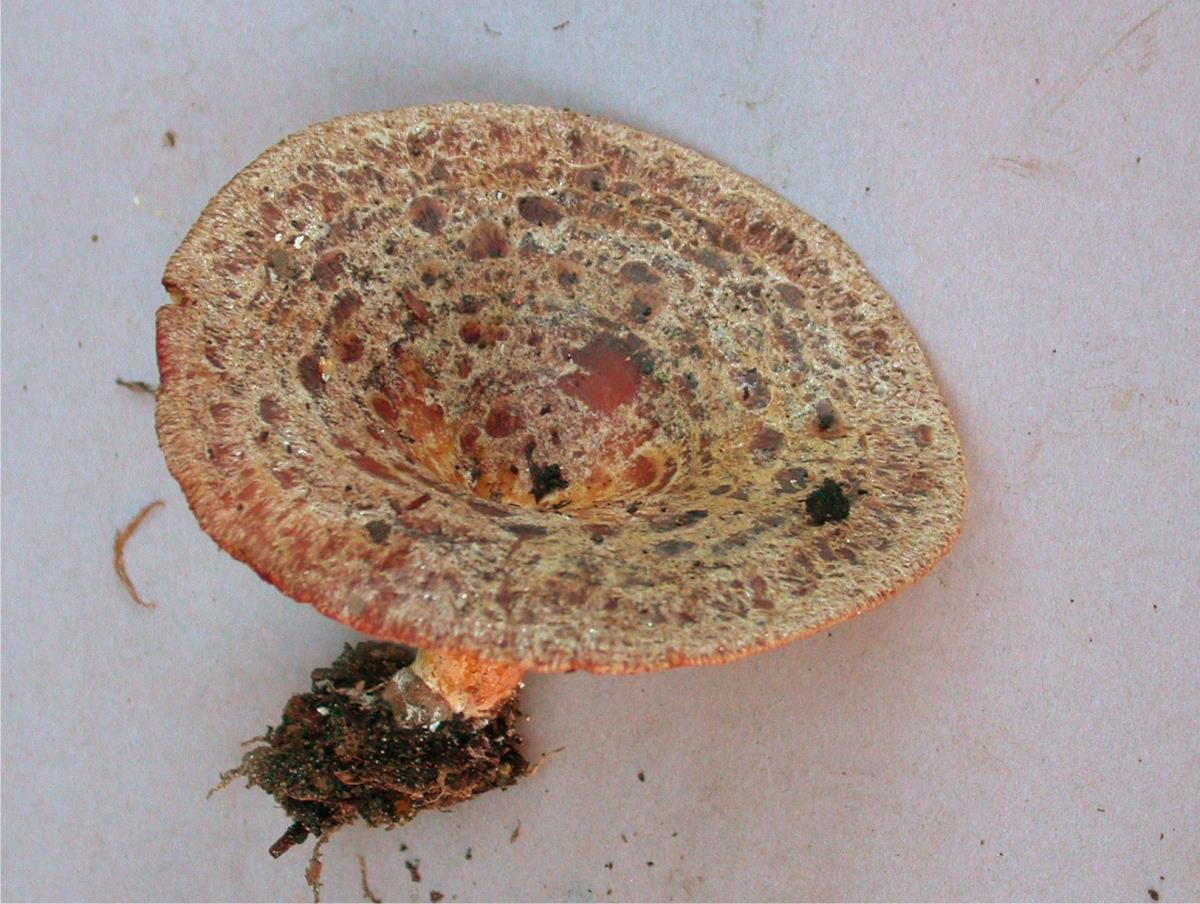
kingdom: Fungi
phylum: Basidiomycota
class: Agaricomycetes
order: Russulales
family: Russulaceae
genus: Lactarius
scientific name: Lactarius tawai
